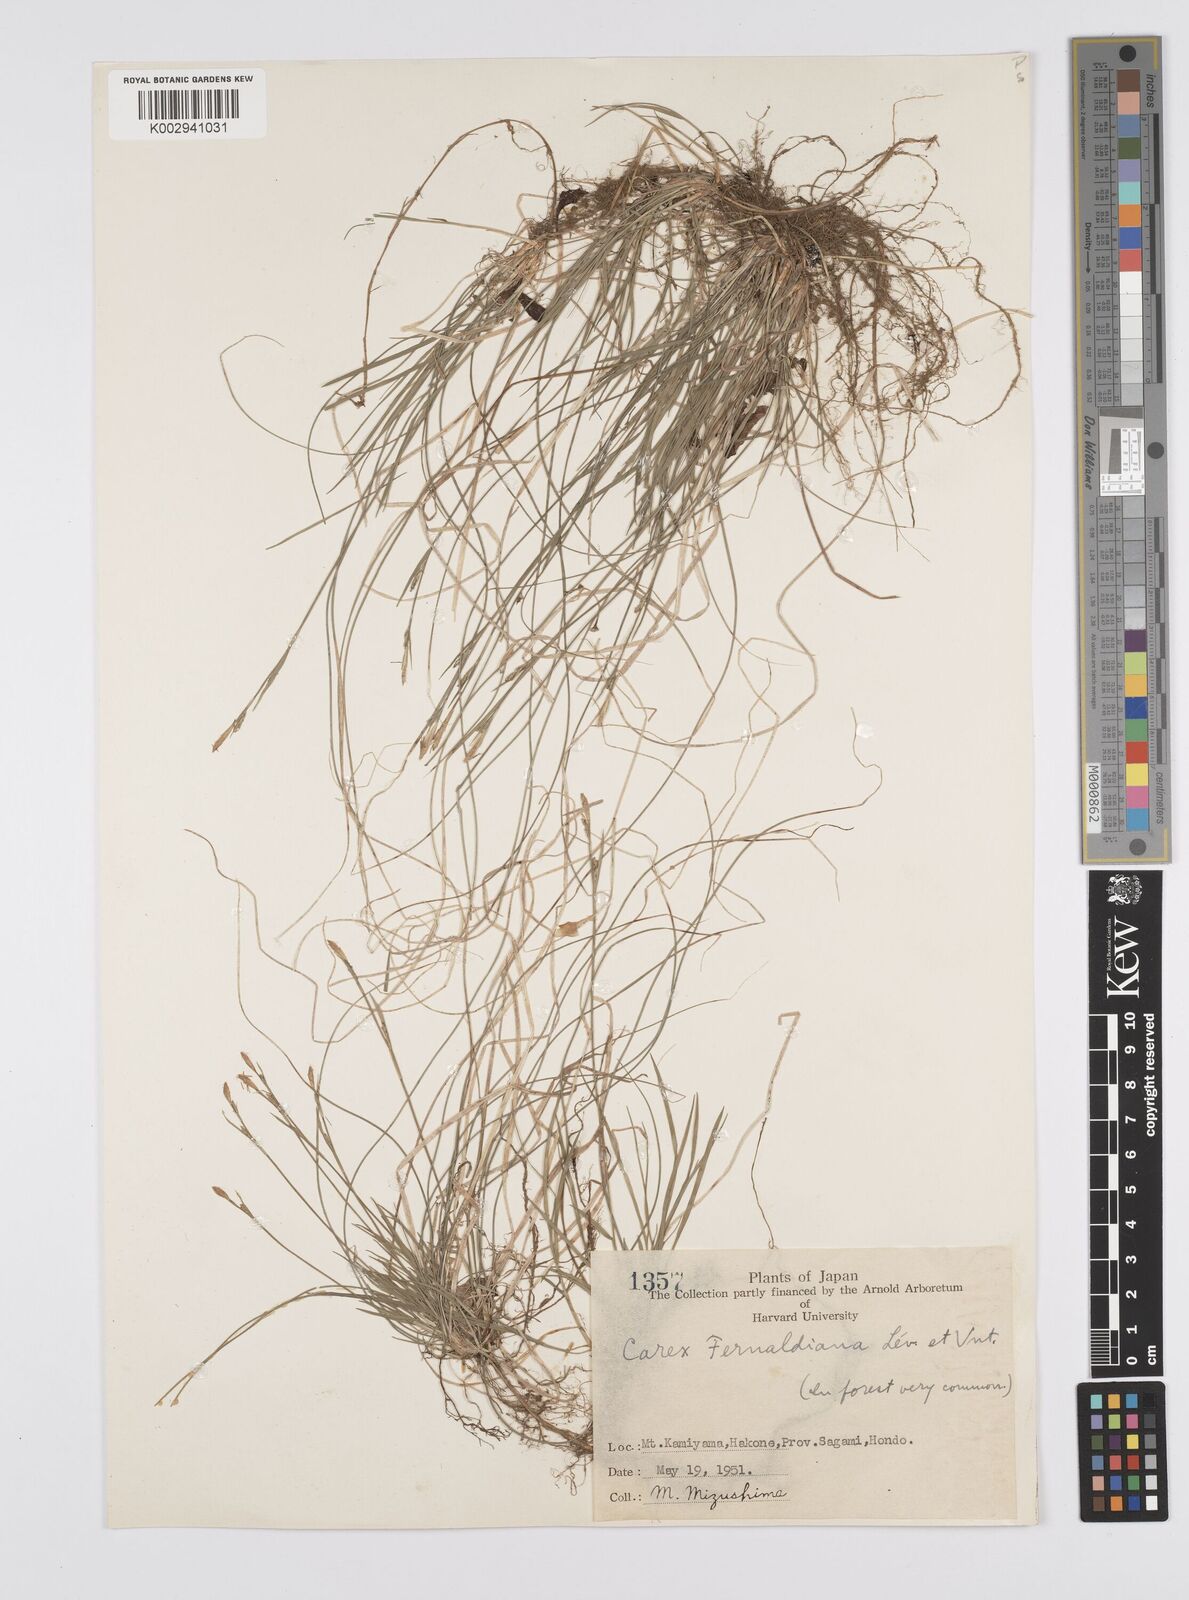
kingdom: Plantae
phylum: Tracheophyta
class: Liliopsida
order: Poales
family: Cyperaceae
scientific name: Cyperaceae
